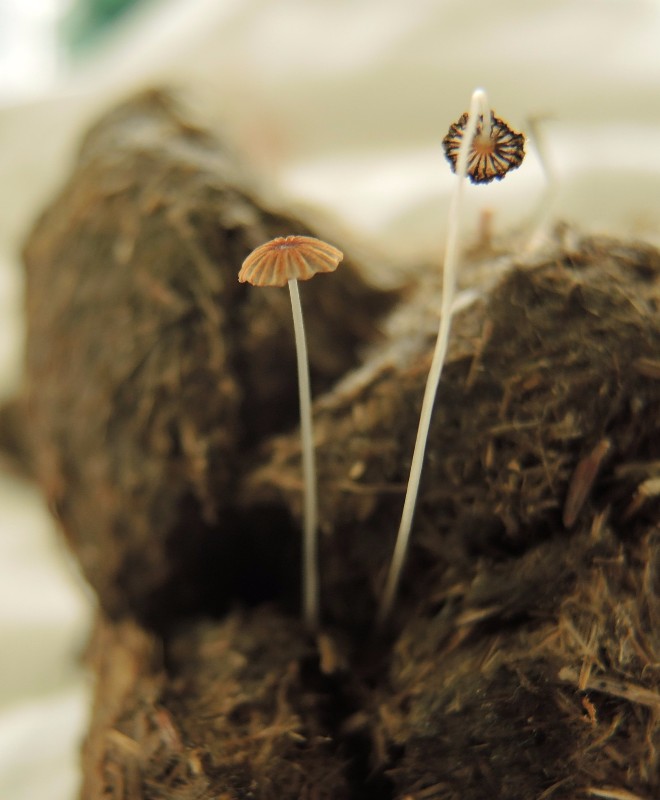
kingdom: Fungi
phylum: Basidiomycota
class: Agaricomycetes
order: Agaricales
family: Psathyrellaceae
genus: Parasola
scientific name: Parasola misera
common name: lillebitte hjulhat
